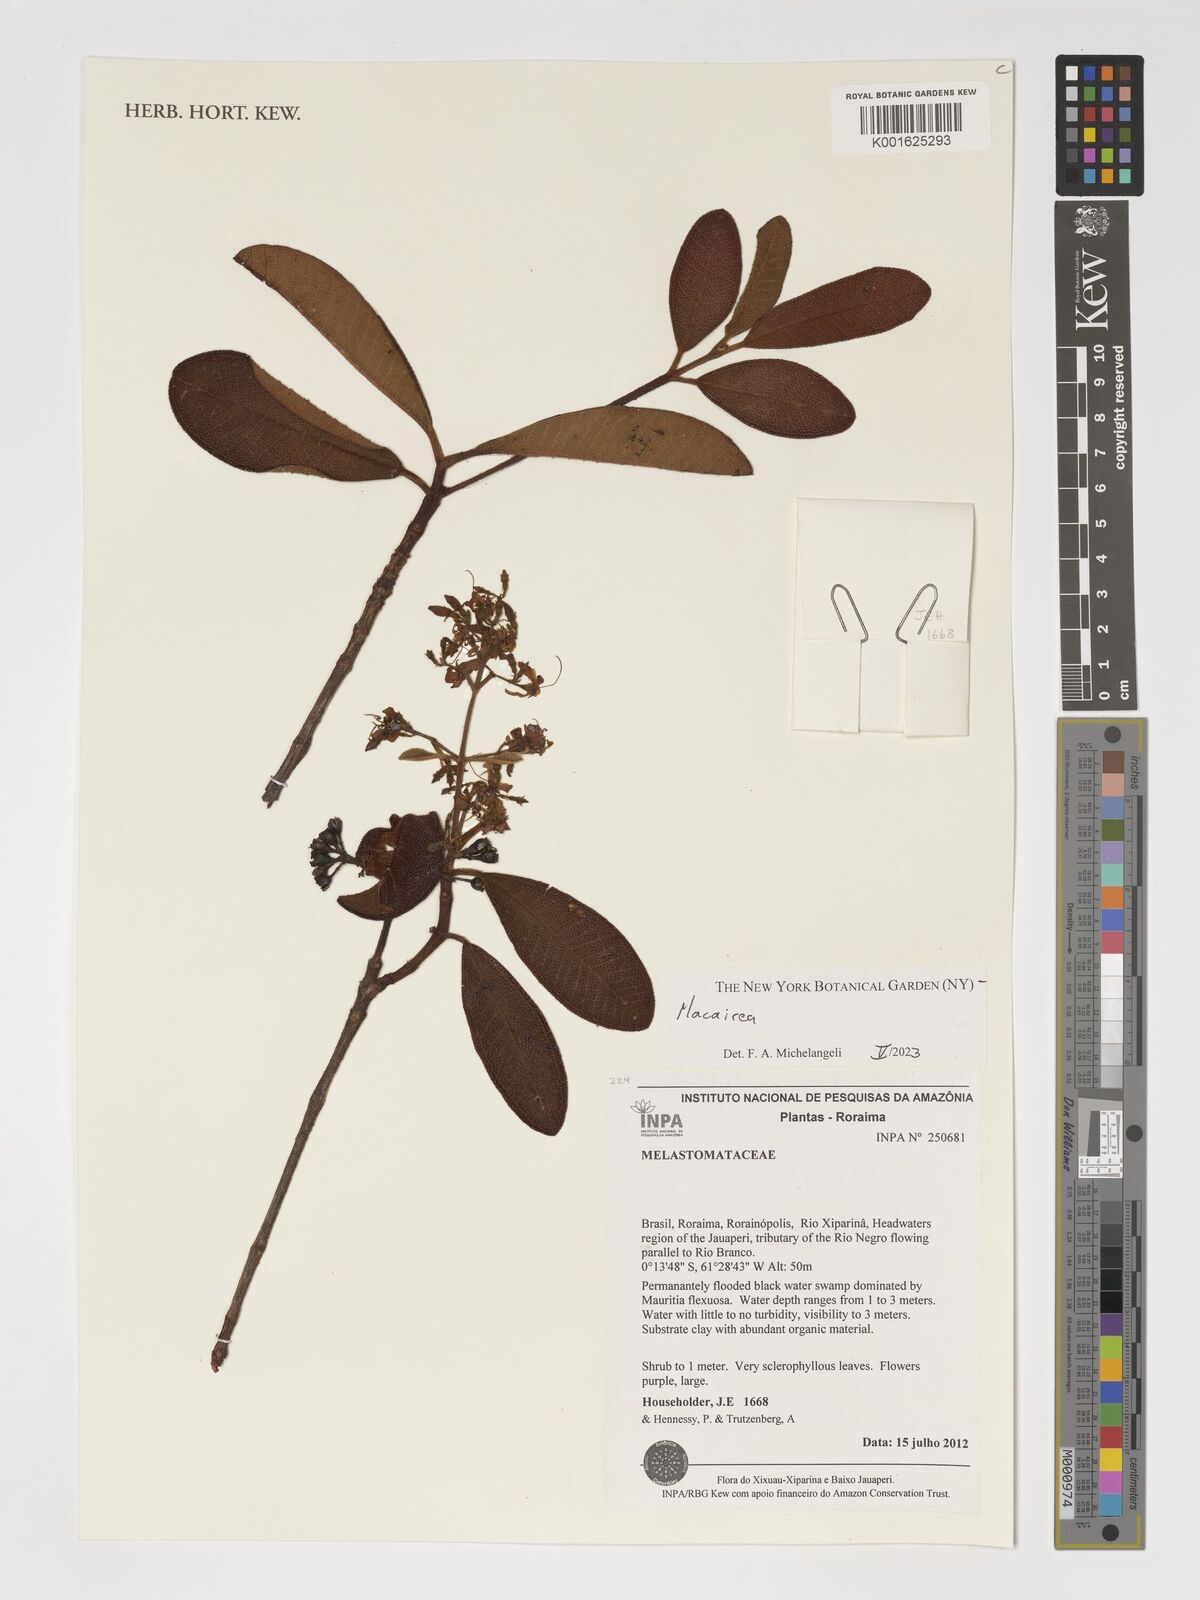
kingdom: Plantae
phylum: Tracheophyta
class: Magnoliopsida
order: Myrtales
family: Melastomataceae
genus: Macairea
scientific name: Macairea
